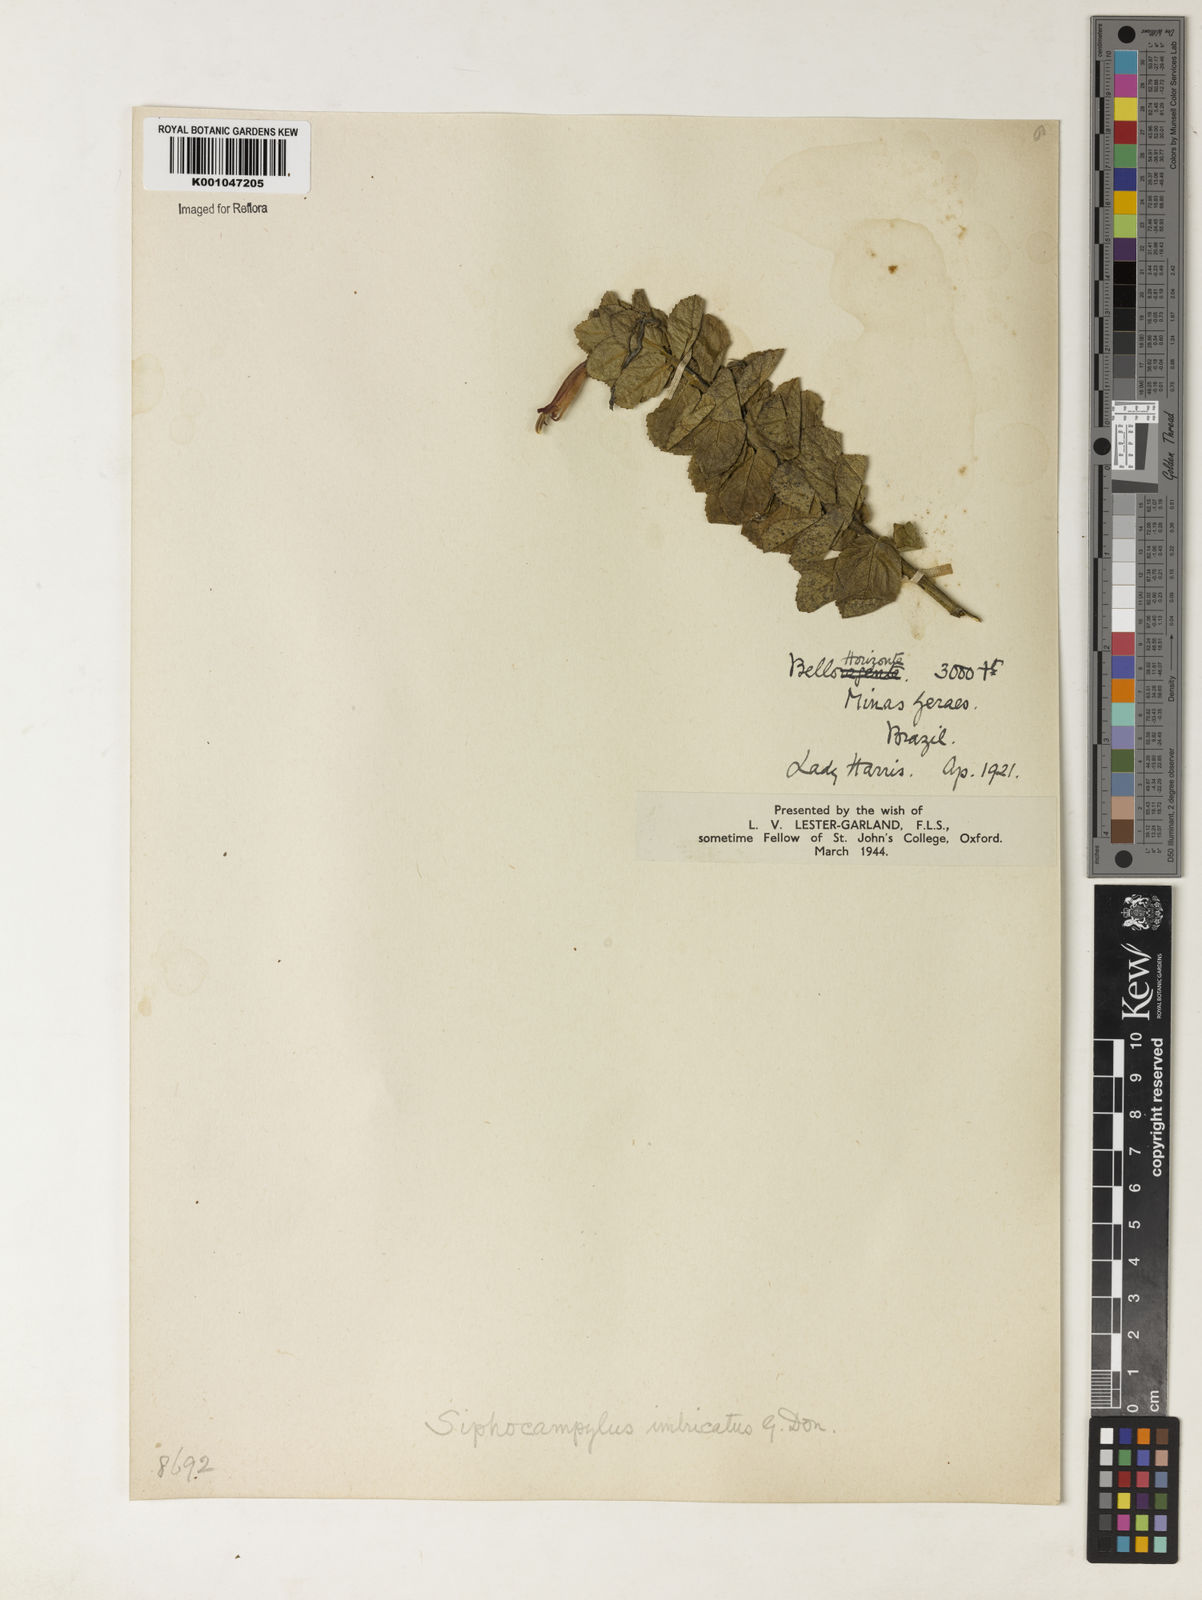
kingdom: Plantae
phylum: Tracheophyta
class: Magnoliopsida
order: Asterales
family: Campanulaceae
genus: Siphocampylus
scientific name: Siphocampylus imbricatus
